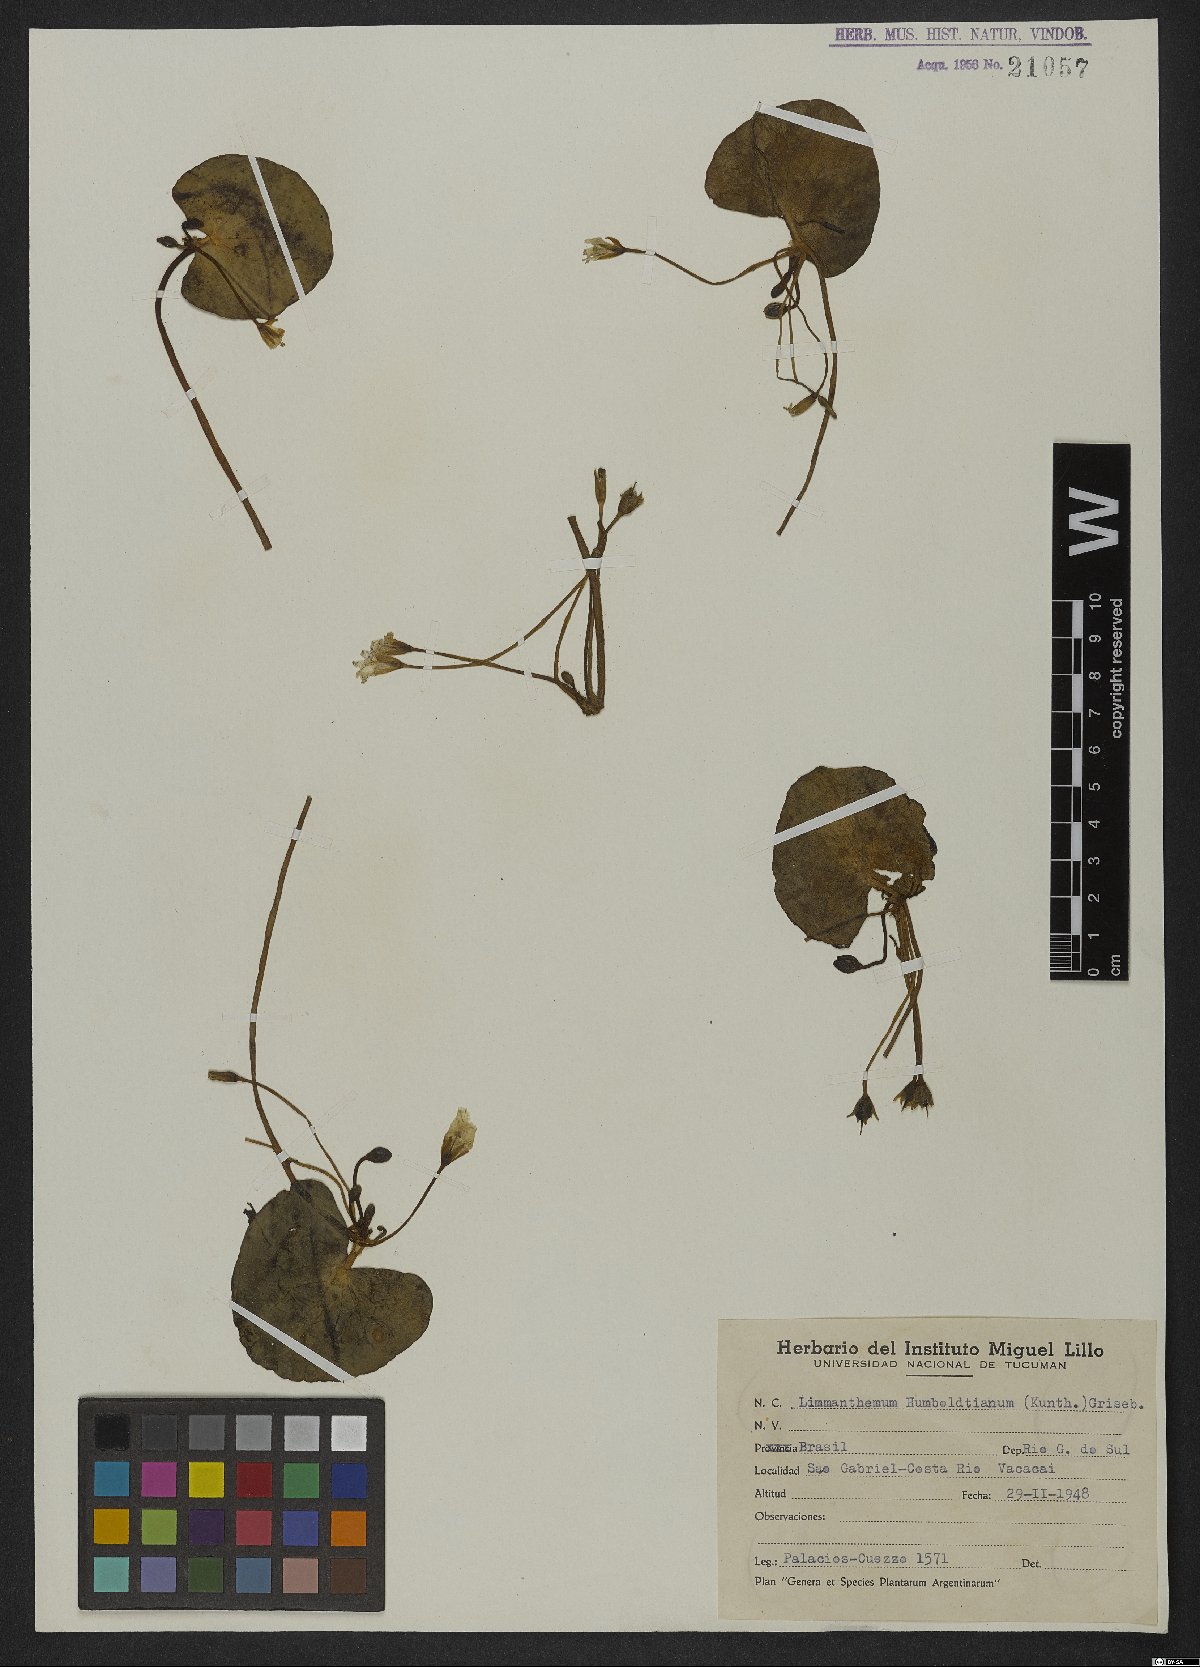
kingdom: Plantae
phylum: Tracheophyta
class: Magnoliopsida
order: Asterales
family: Menyanthaceae
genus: Nymphoides
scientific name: Nymphoides humboldtiana
